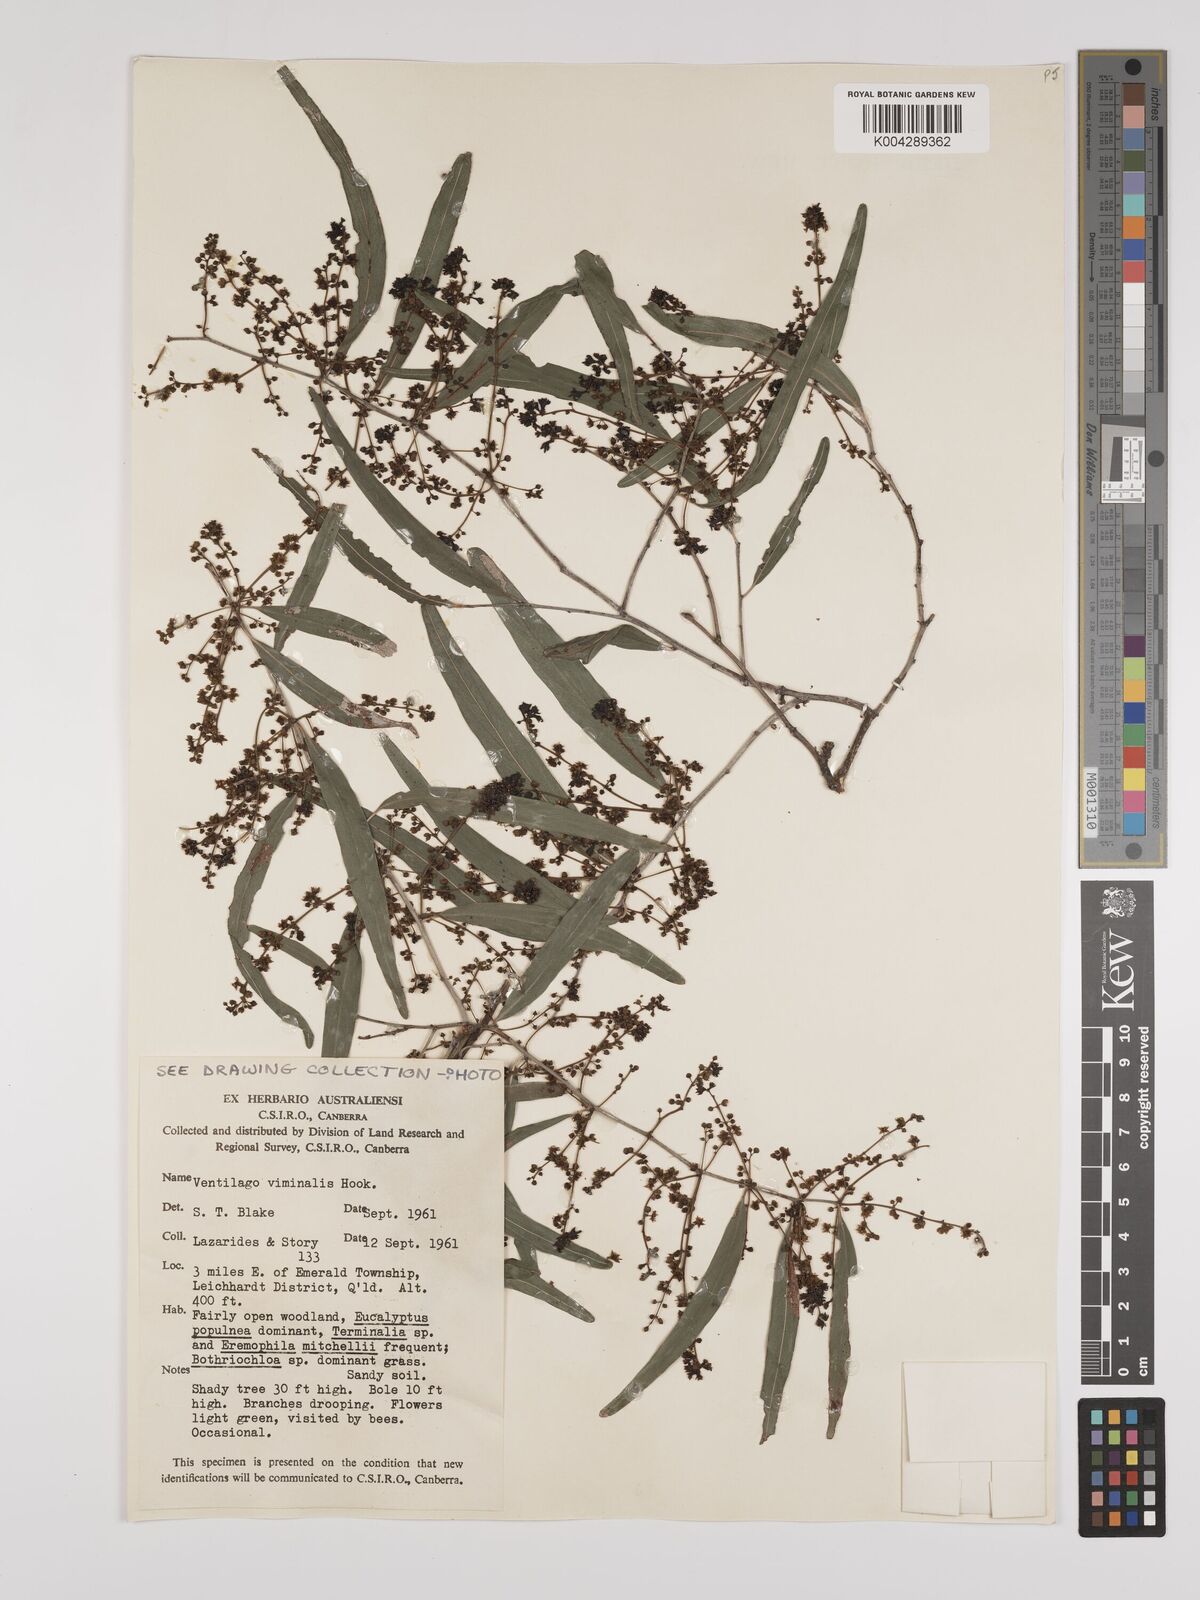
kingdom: Plantae
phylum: Tracheophyta
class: Magnoliopsida
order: Rosales
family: Rhamnaceae
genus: Ventilago
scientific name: Ventilago viminalis
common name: Medicine-bark
